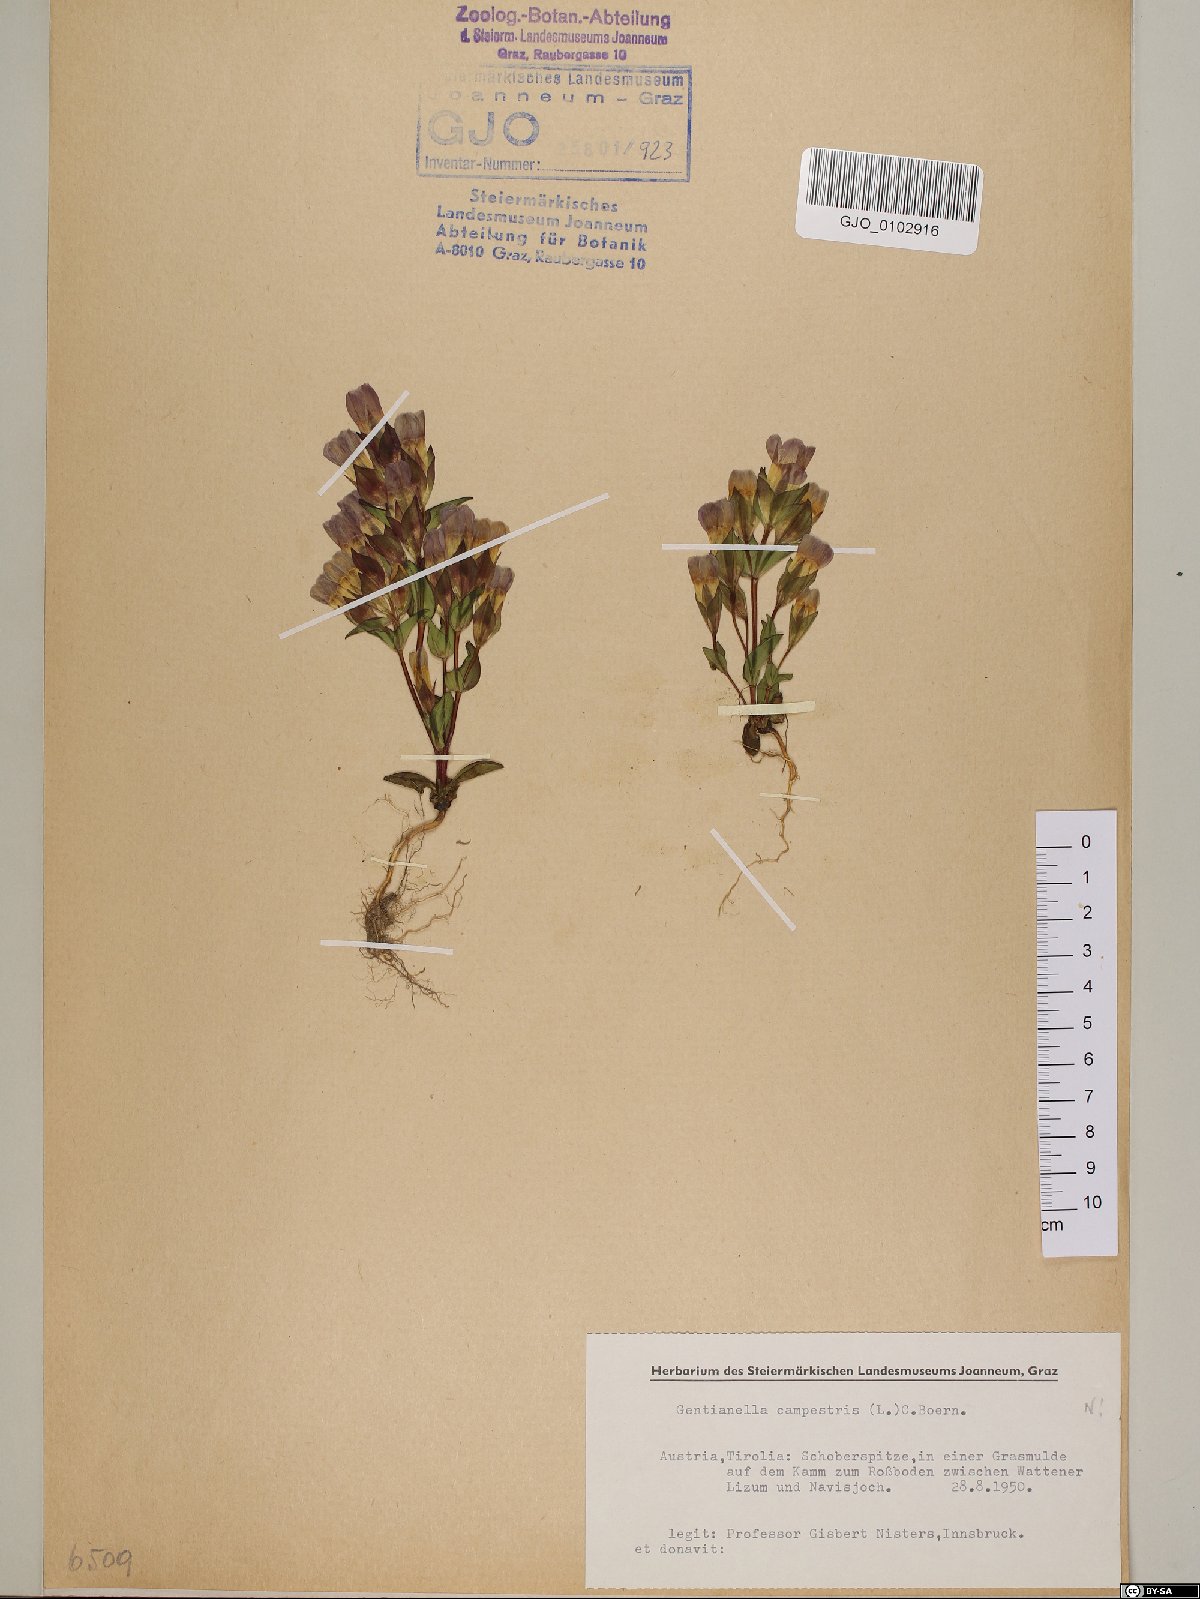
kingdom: Plantae
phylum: Tracheophyta
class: Magnoliopsida
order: Gentianales
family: Gentianaceae
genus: Gentianella
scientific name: Gentianella campestris
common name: Field gentian
